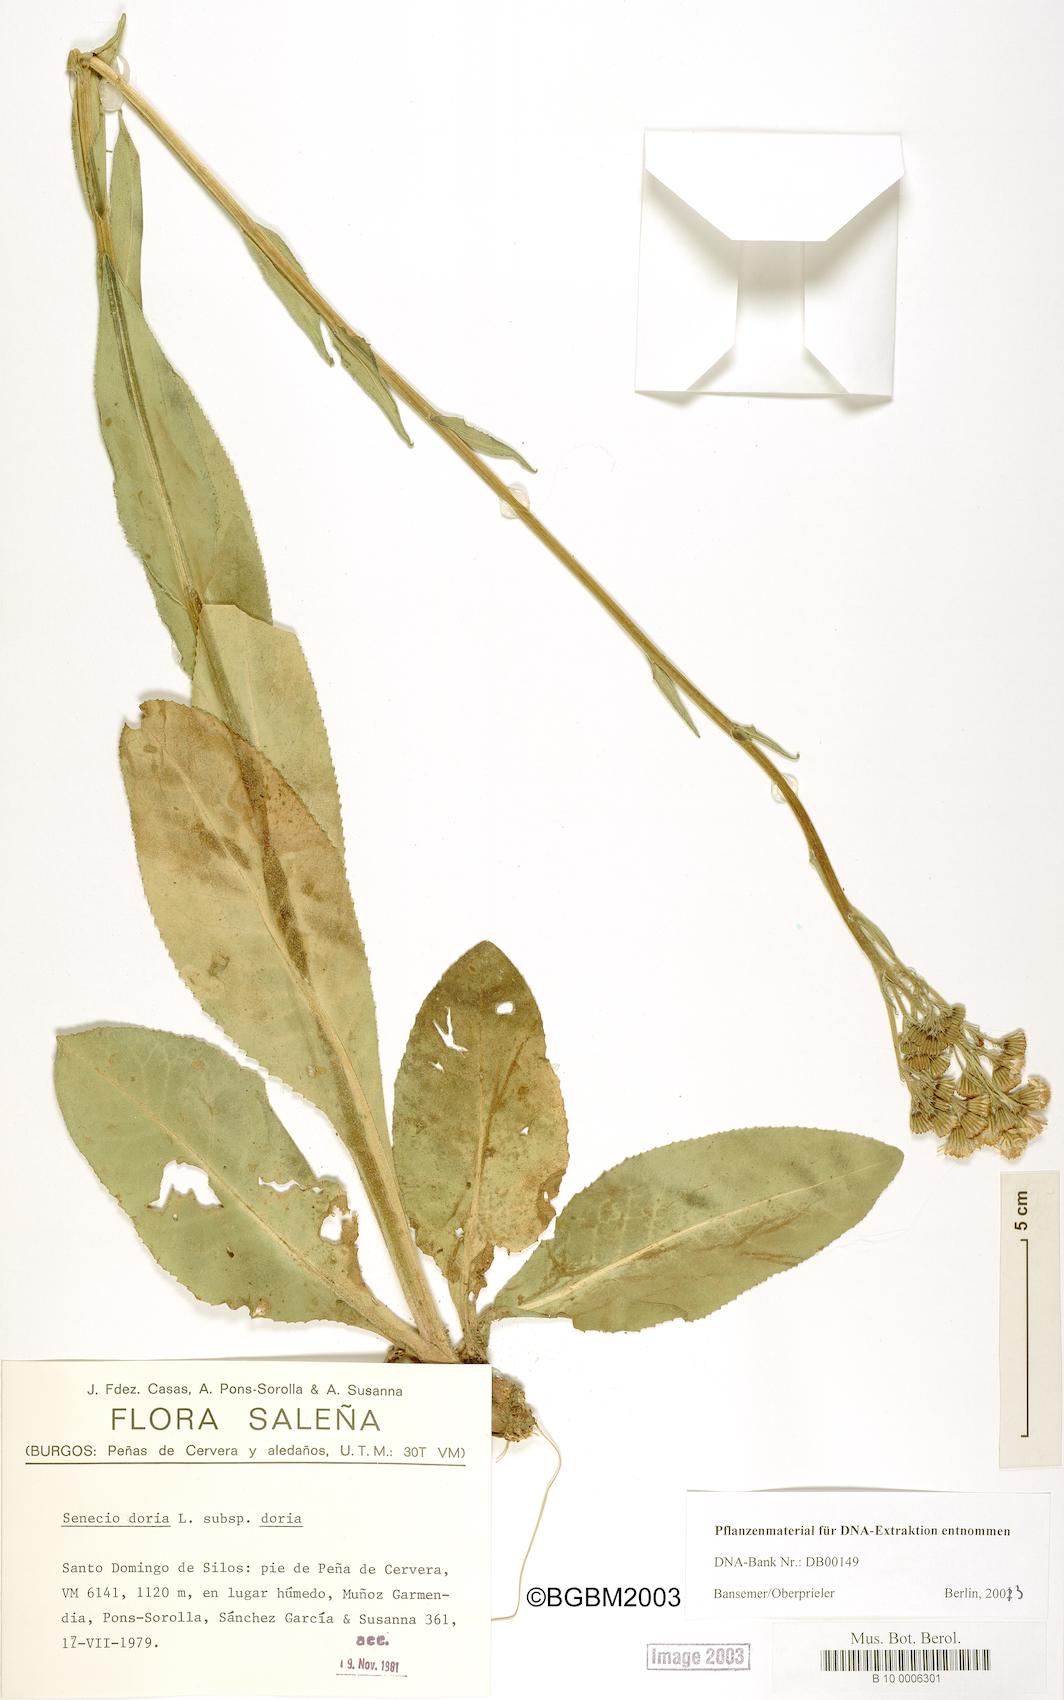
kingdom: Plantae
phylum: Tracheophyta
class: Magnoliopsida
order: Asterales
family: Asteraceae
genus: Senecio
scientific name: Senecio doria
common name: Golden ragwort
